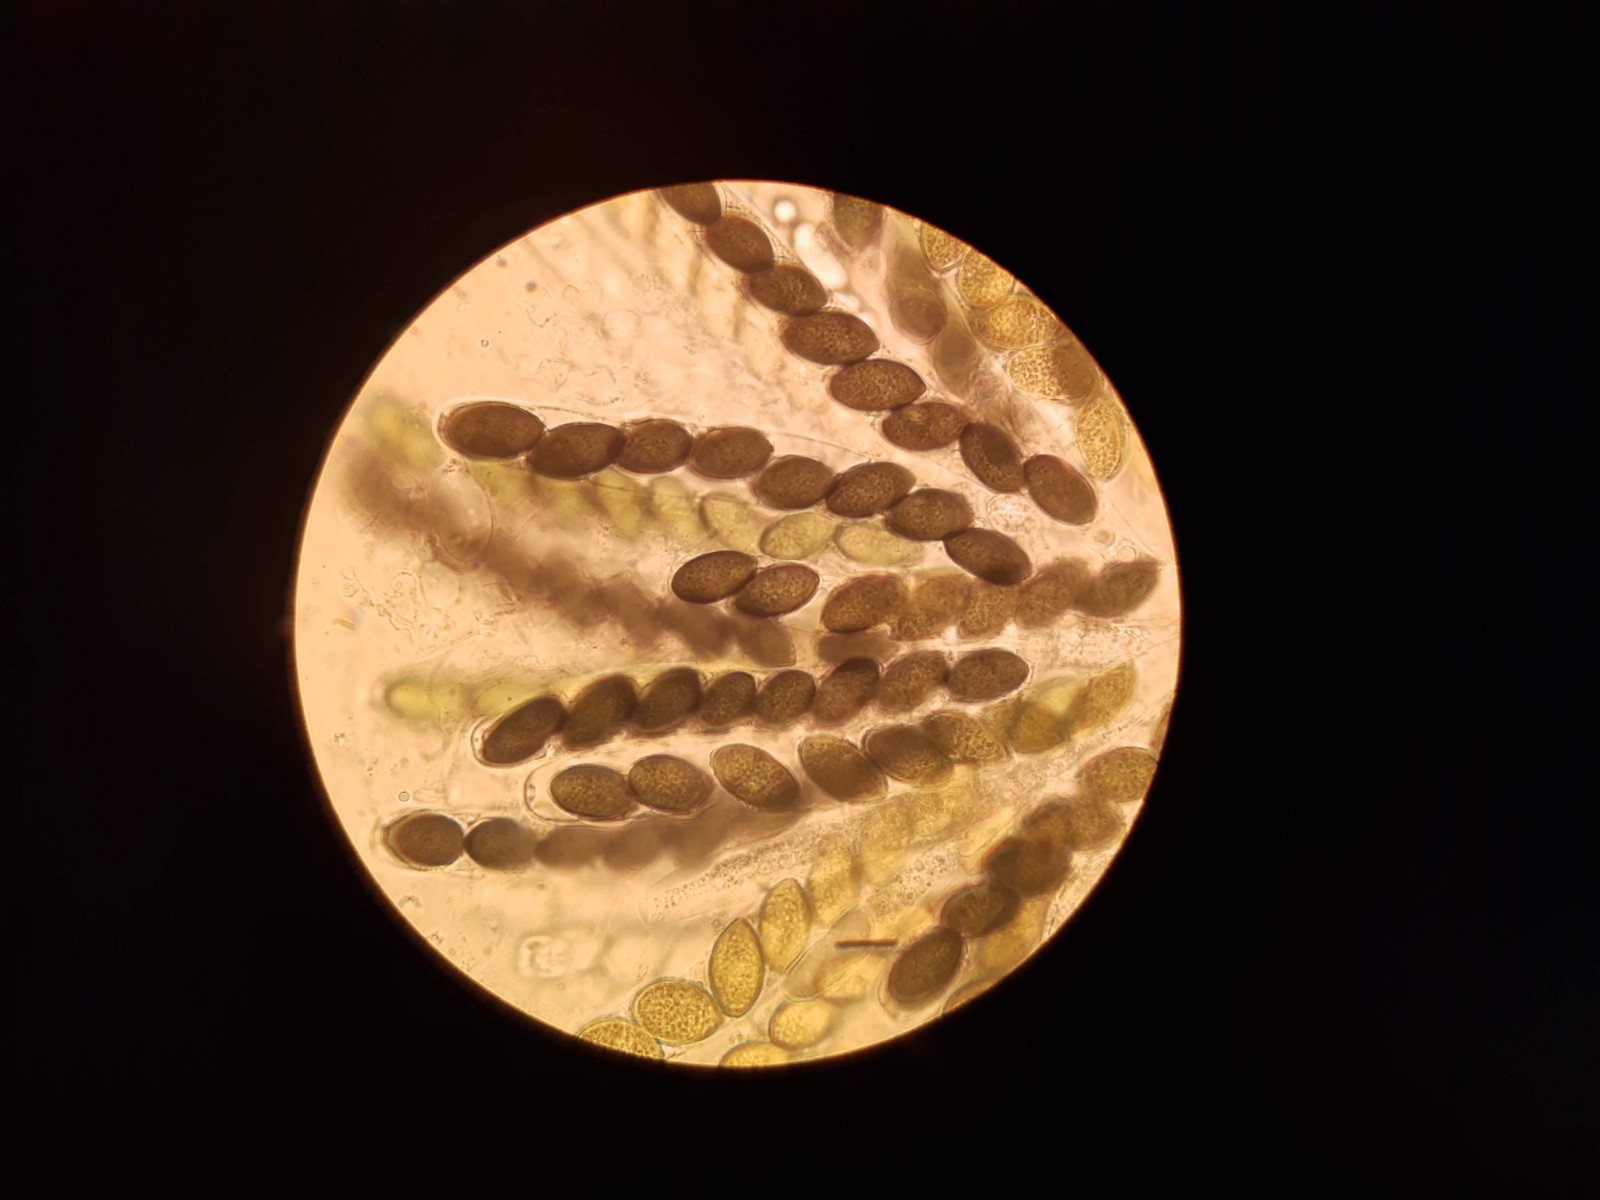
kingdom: Fungi
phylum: Ascomycota
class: Sordariomycetes
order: Sordariales
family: Sordariaceae
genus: Sordaria
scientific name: Sordaria fimicola
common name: gødnings-kernesvamp
